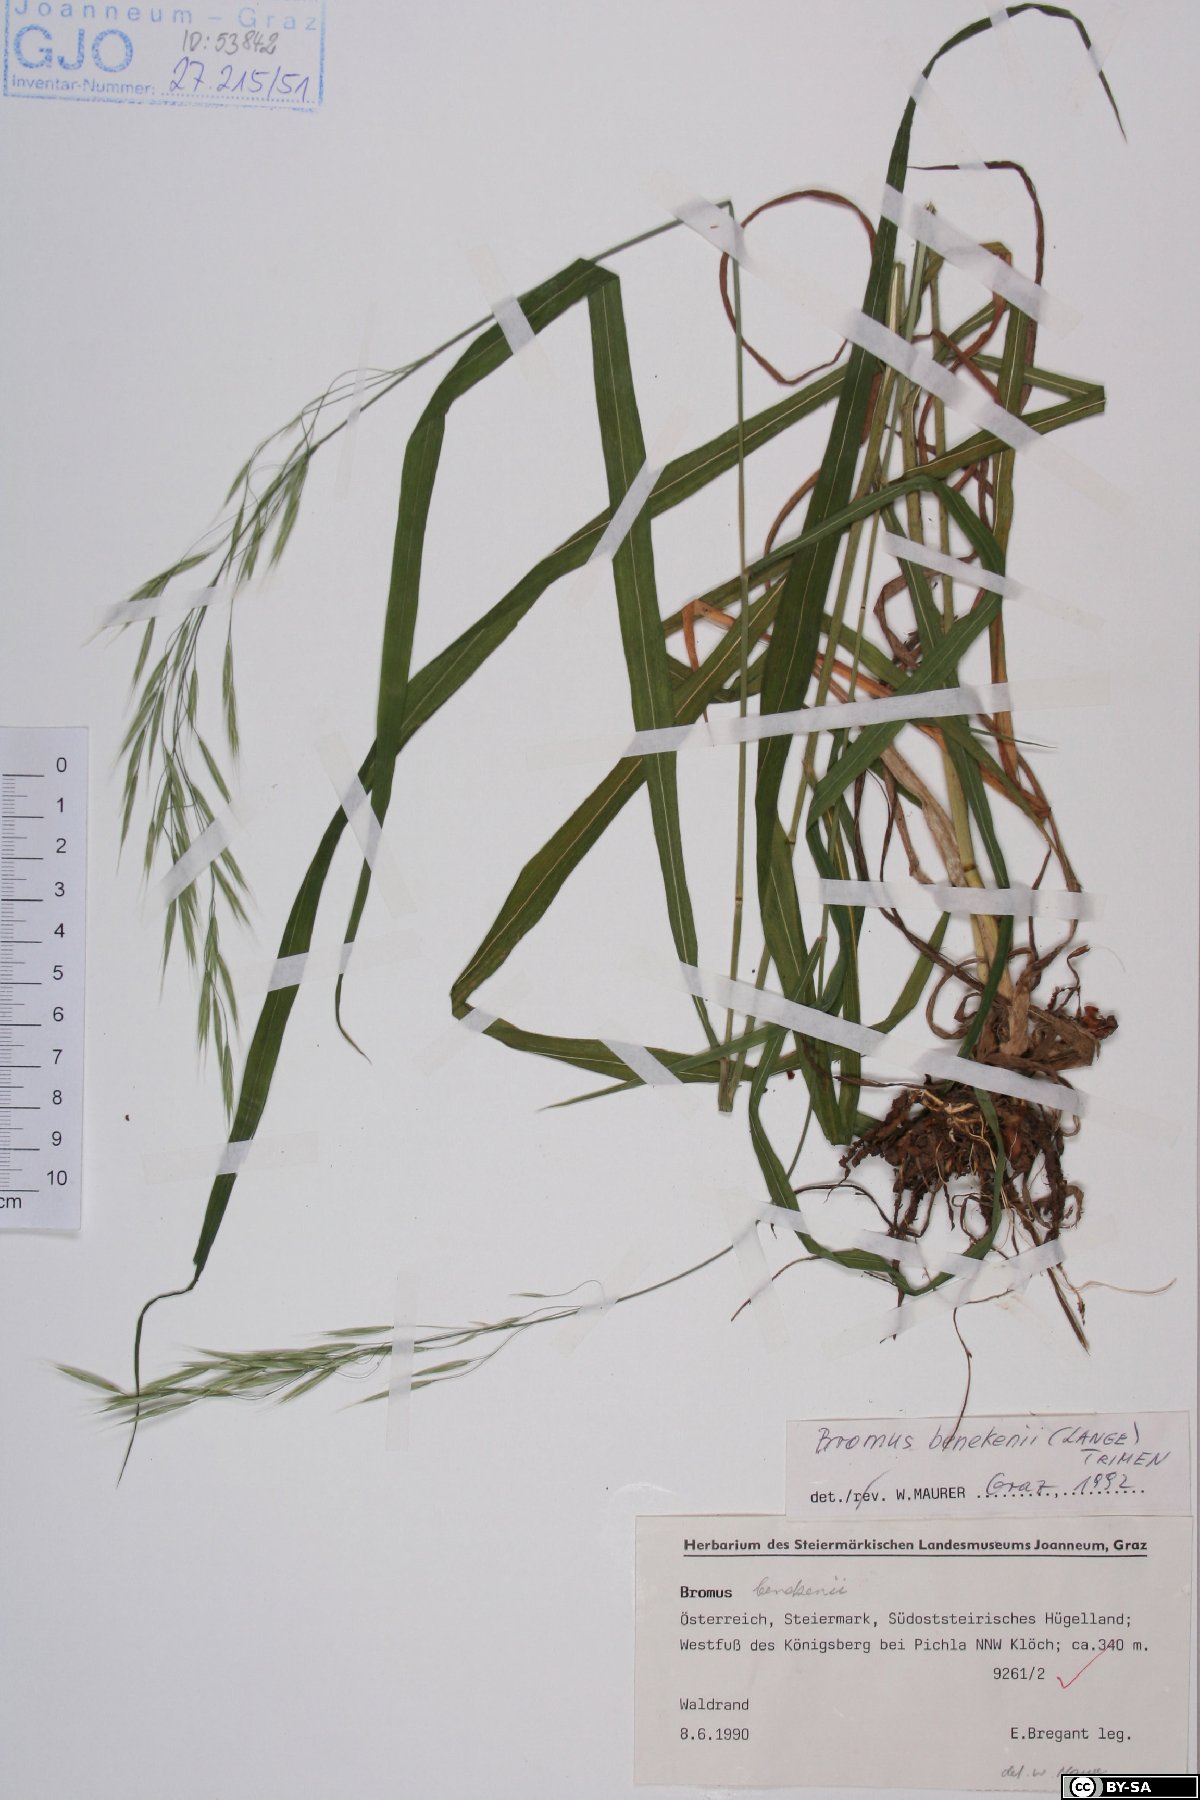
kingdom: Plantae
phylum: Tracheophyta
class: Liliopsida
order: Poales
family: Poaceae
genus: Bromus
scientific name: Bromus benekenii
